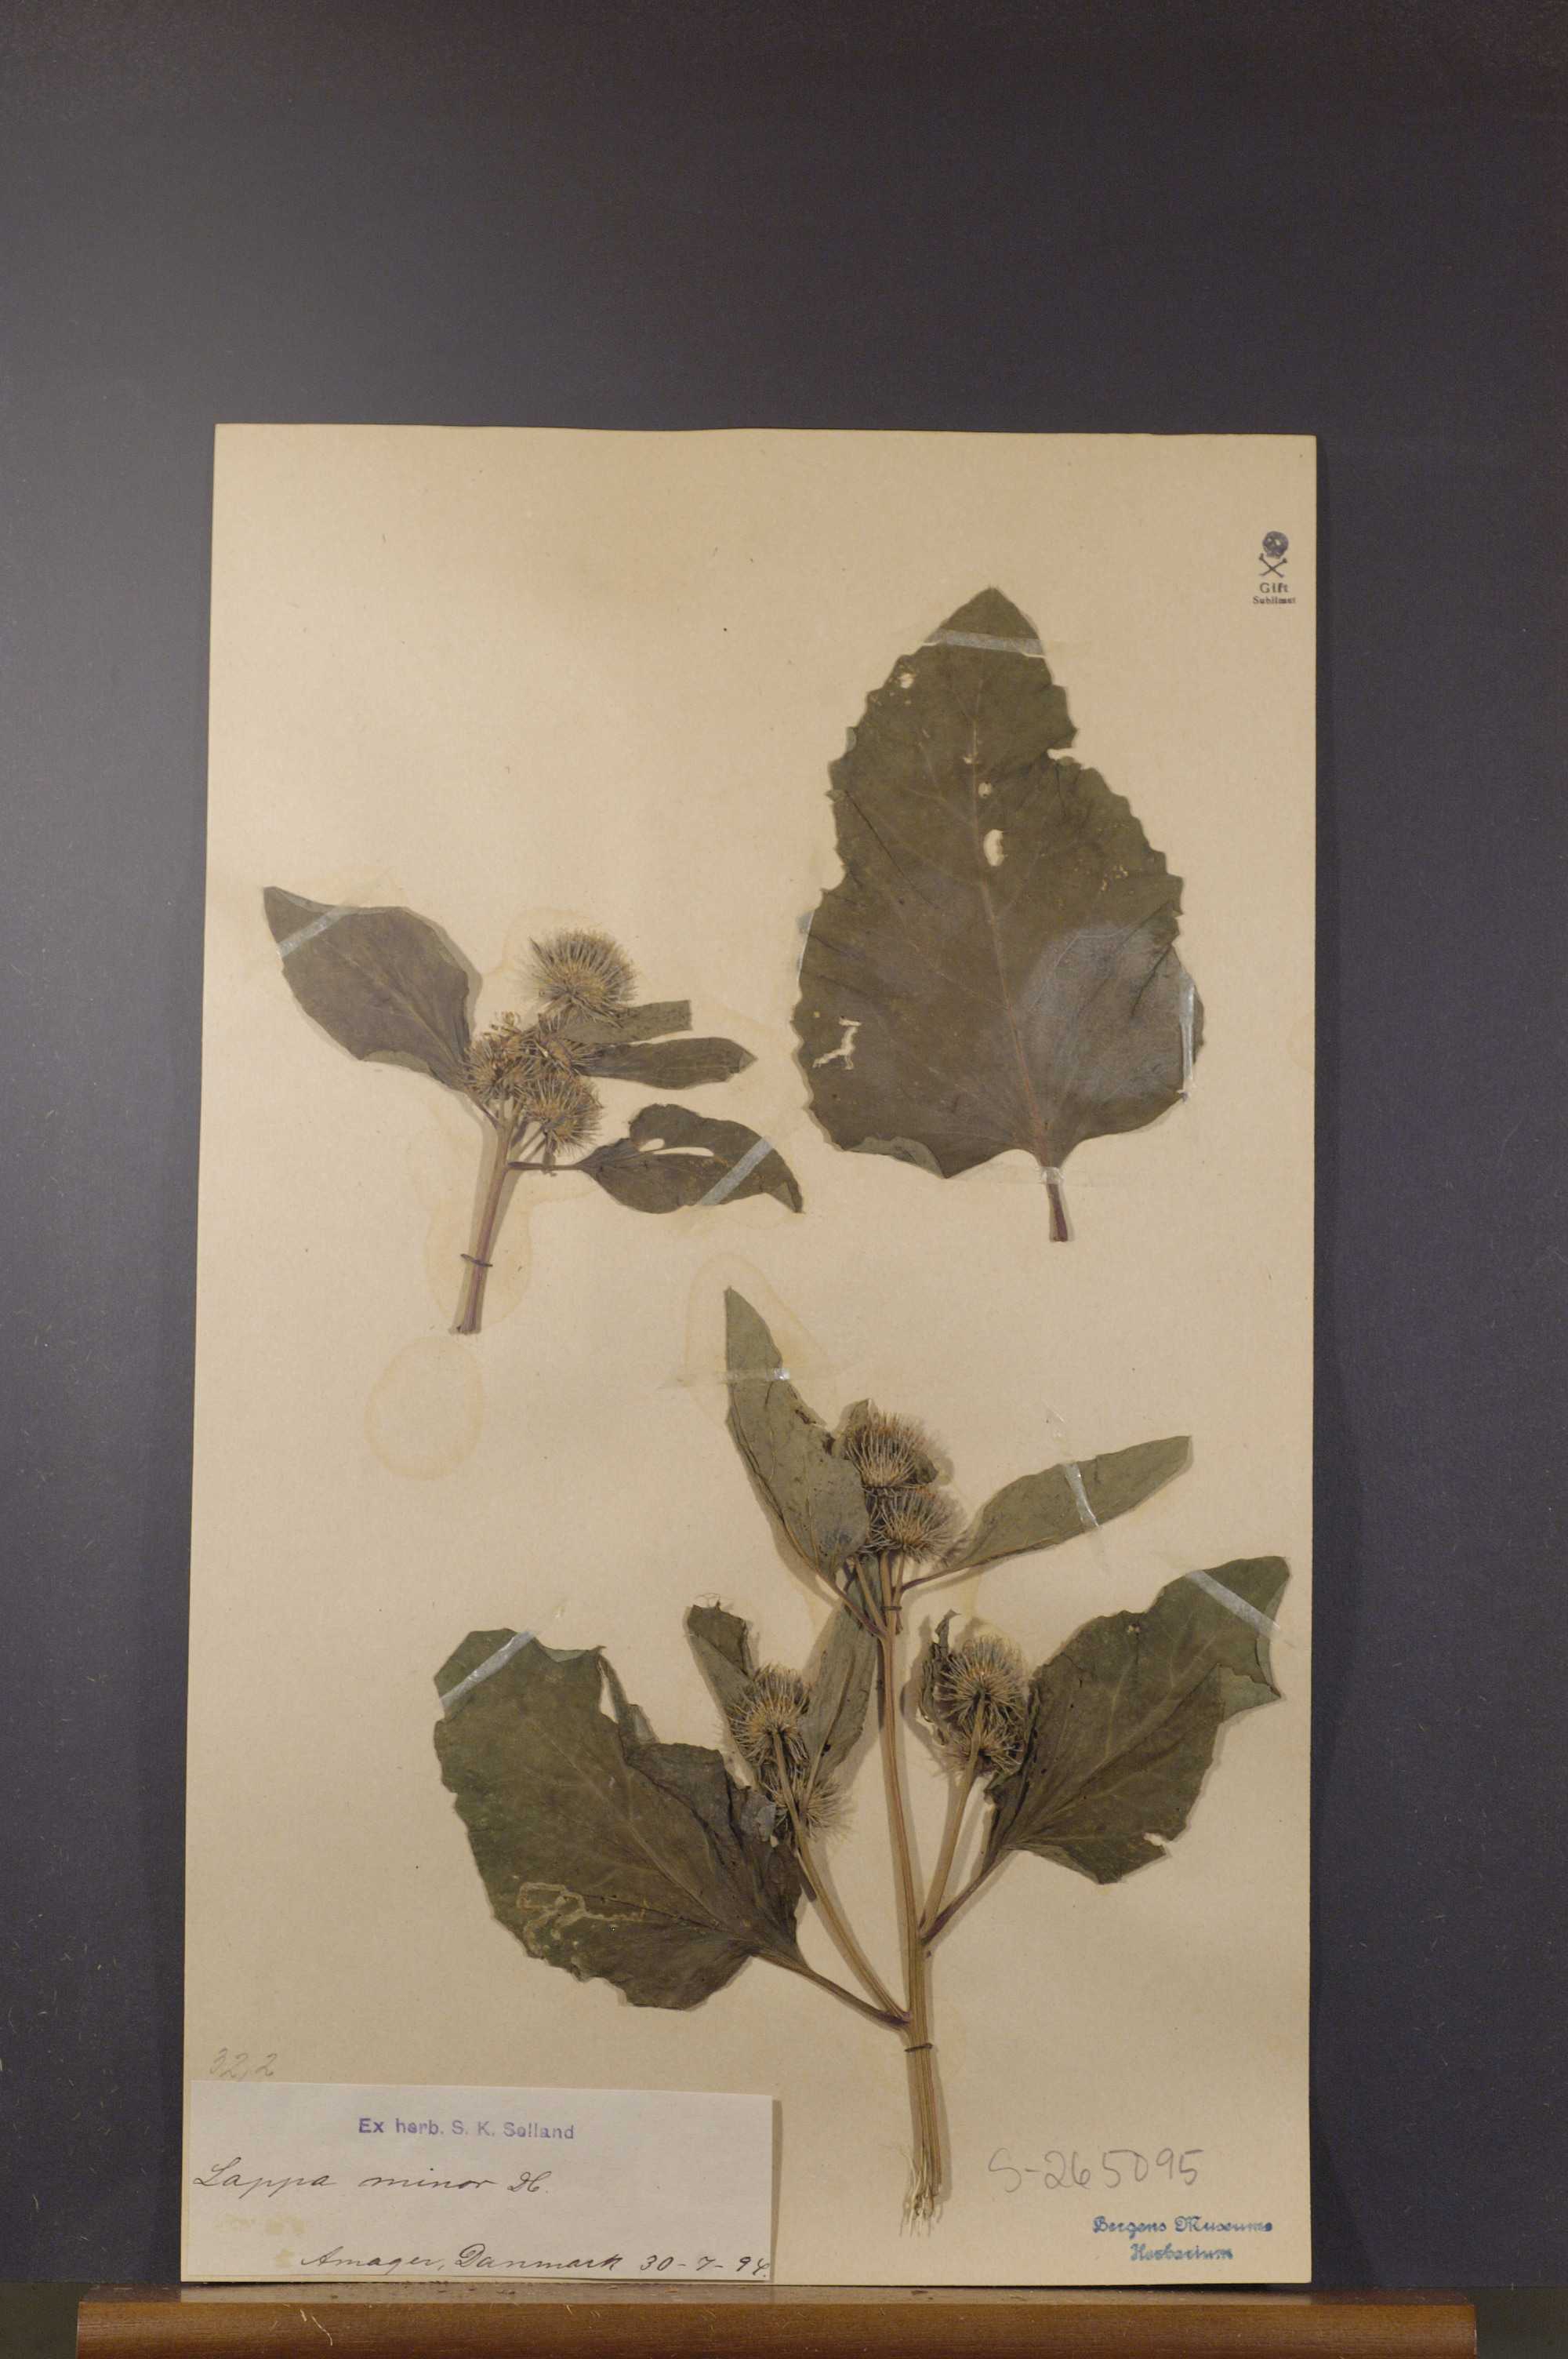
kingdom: Plantae
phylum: Tracheophyta
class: Magnoliopsida
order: Asterales
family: Asteraceae
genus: Arctium
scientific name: Arctium minus
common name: Lesser burdock
